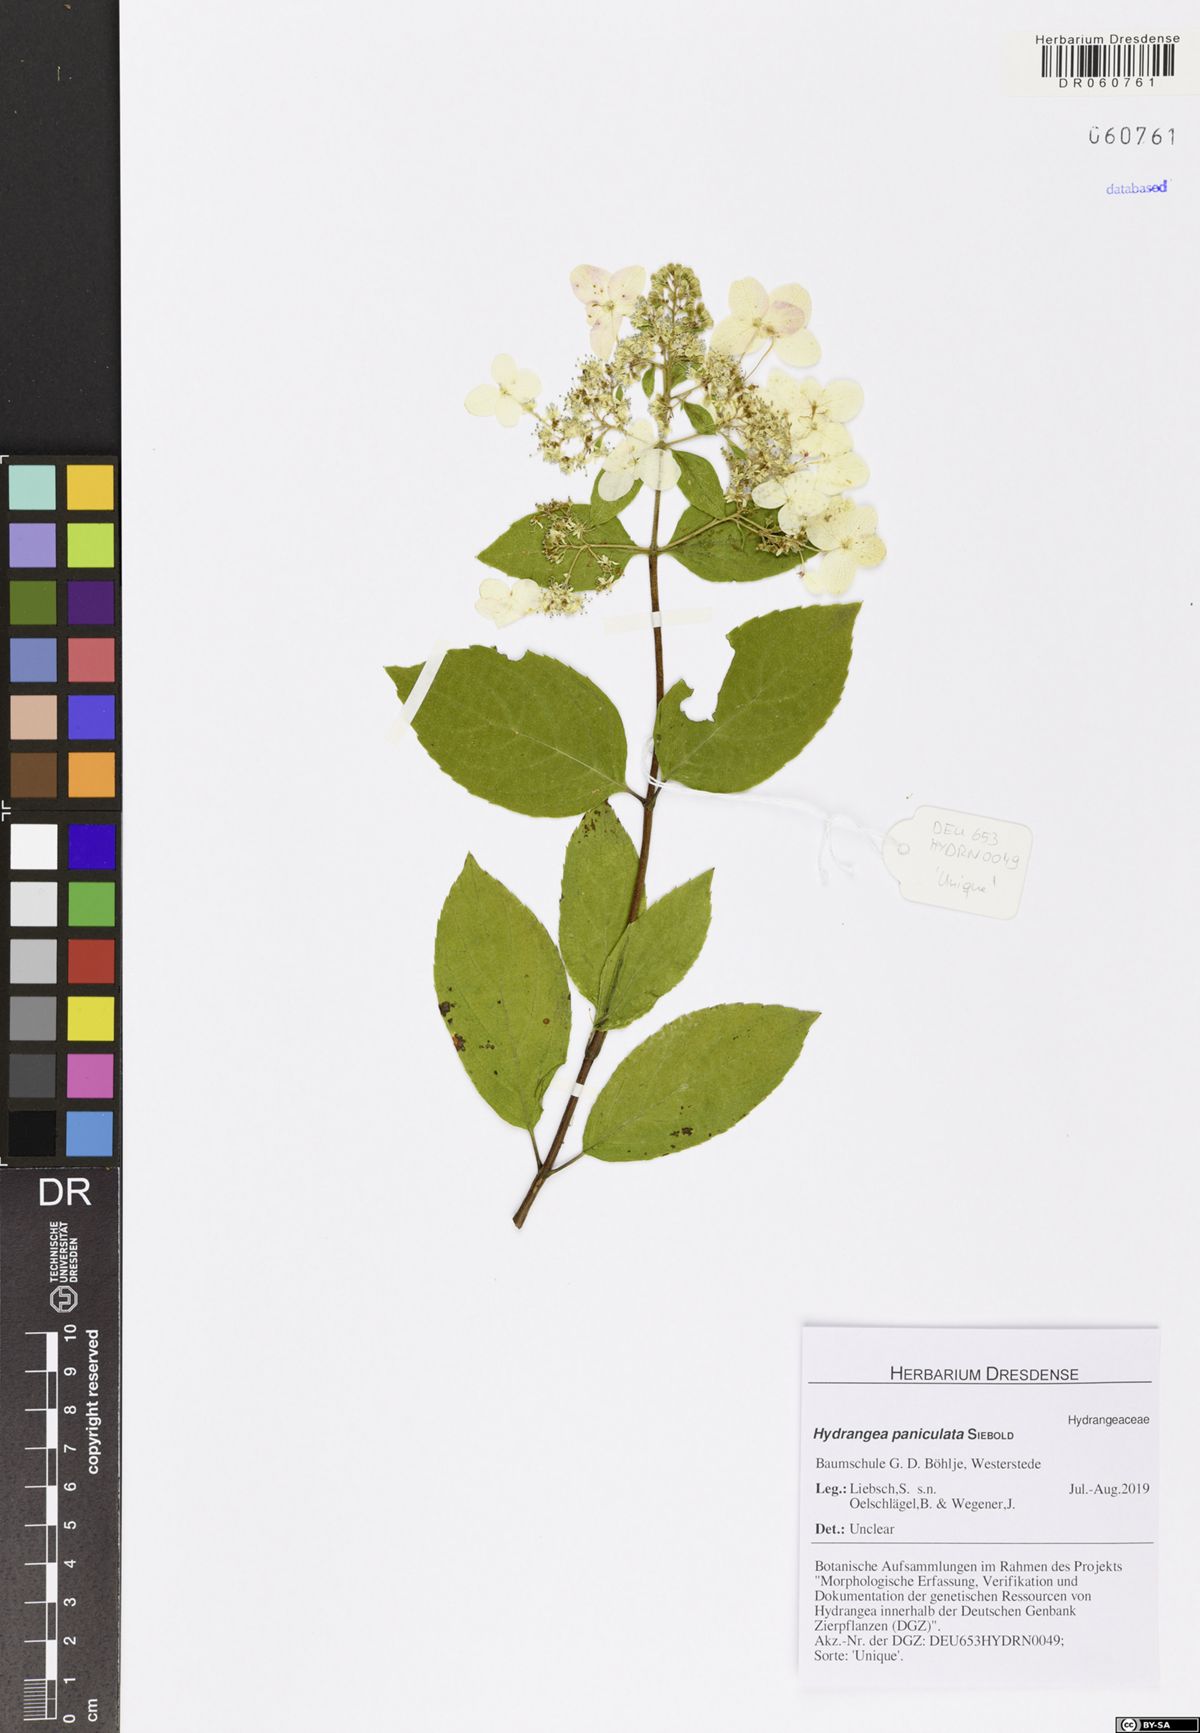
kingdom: Plantae
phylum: Tracheophyta
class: Magnoliopsida
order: Cornales
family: Hydrangeaceae
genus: Hydrangea
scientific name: Hydrangea paniculata
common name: Panicled hydrangea
